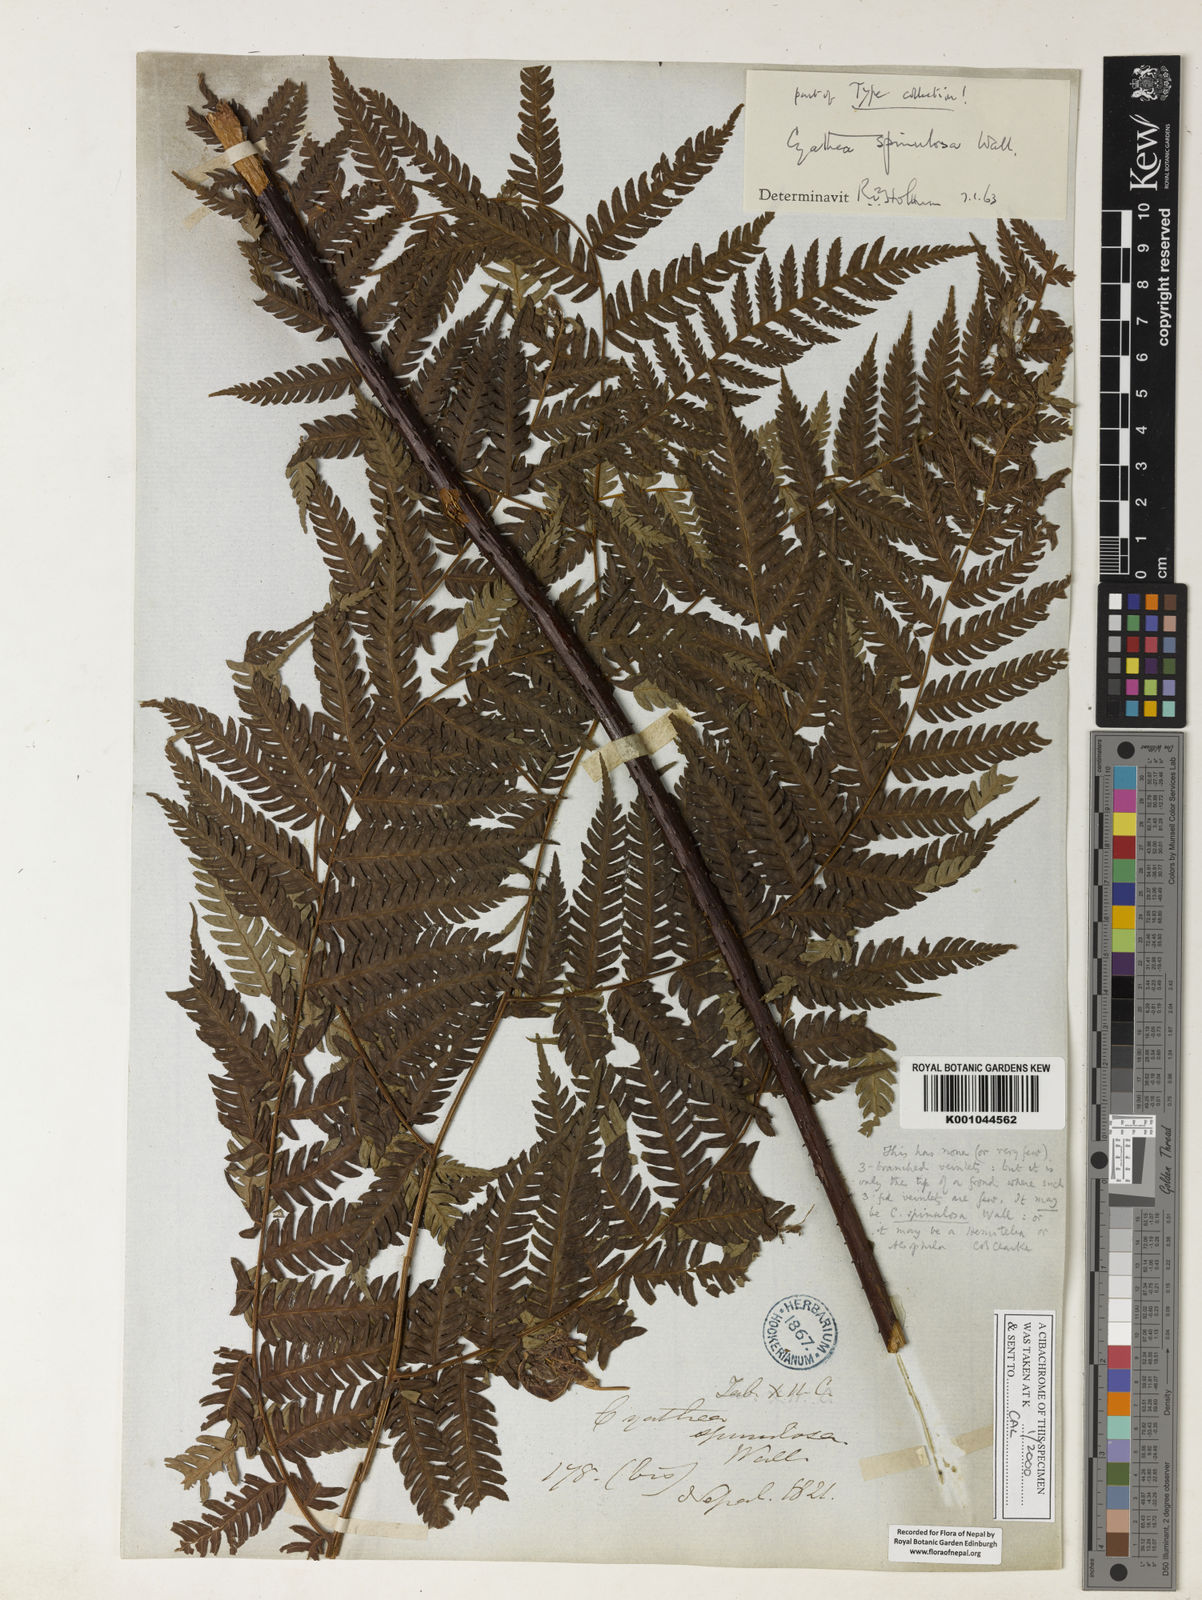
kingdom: Plantae
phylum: Tracheophyta
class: Polypodiopsida
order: Cyatheales
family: Cyatheaceae
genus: Cyathea
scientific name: Cyathea
